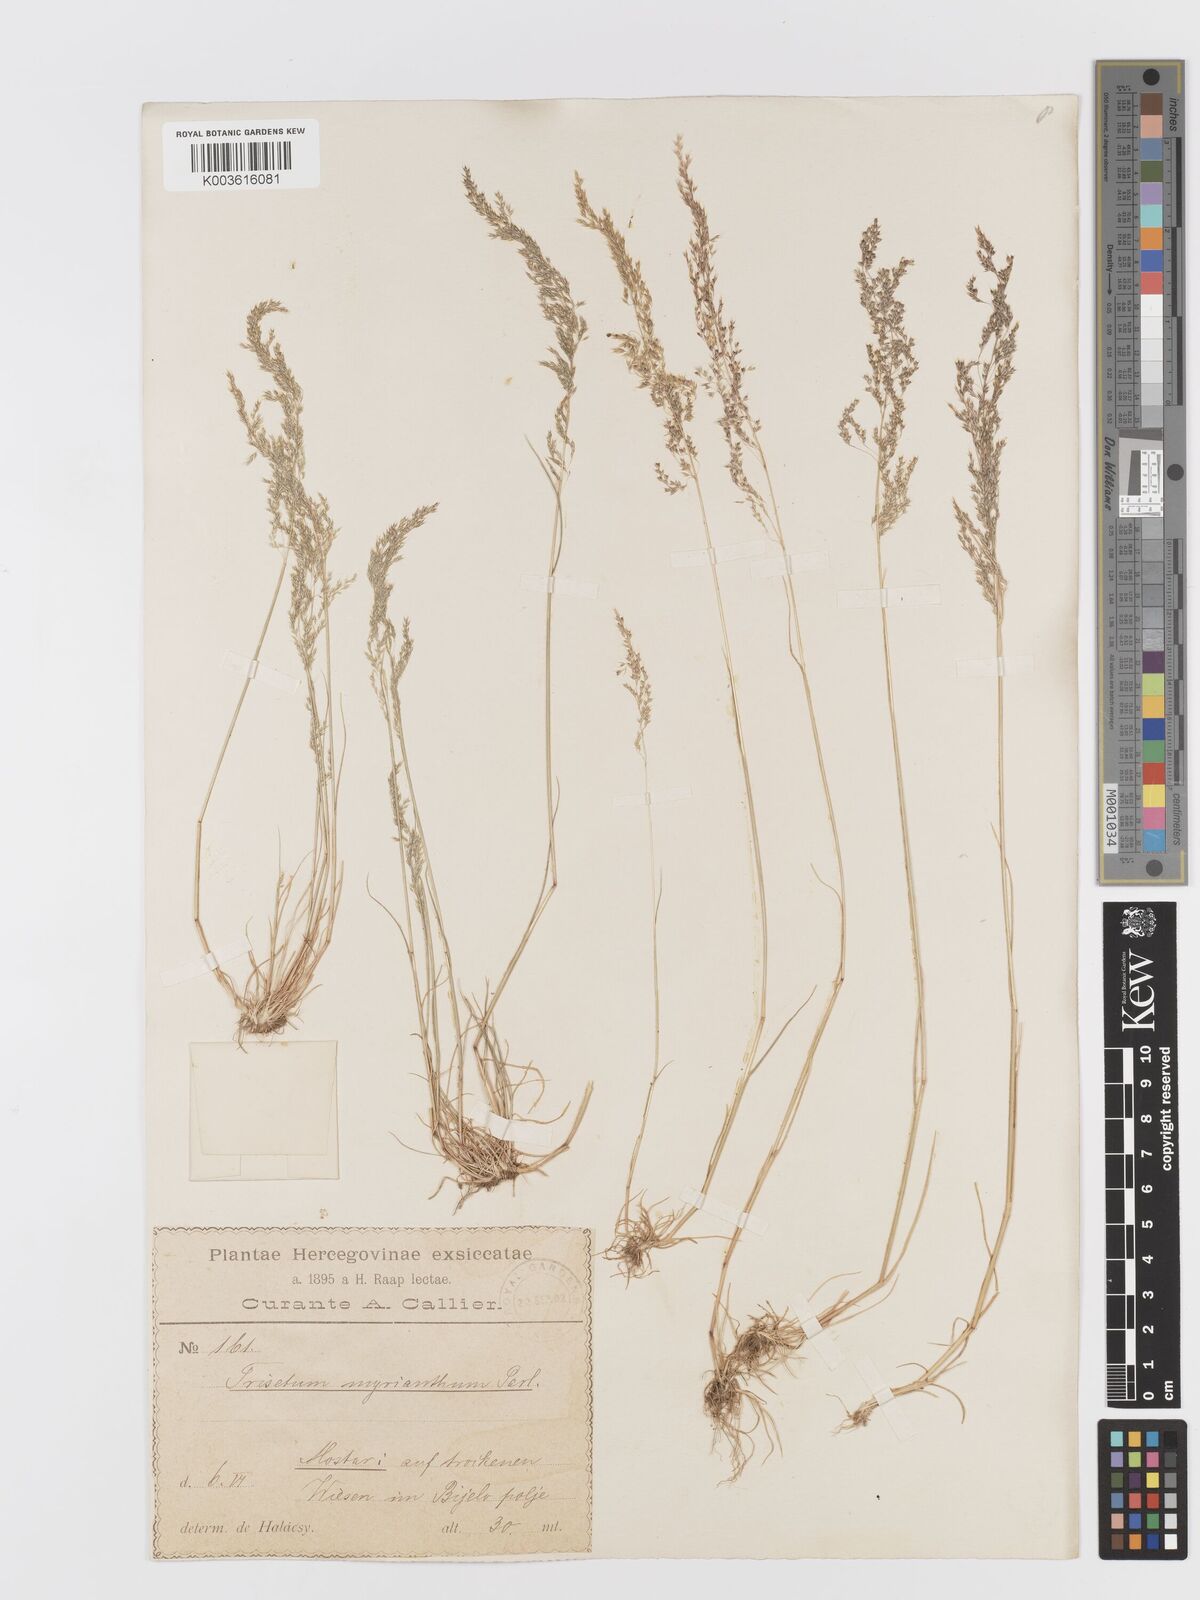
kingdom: Plantae
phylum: Tracheophyta
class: Liliopsida
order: Poales
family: Poaceae
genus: Parvotrisetum
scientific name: Parvotrisetum myrianthum
